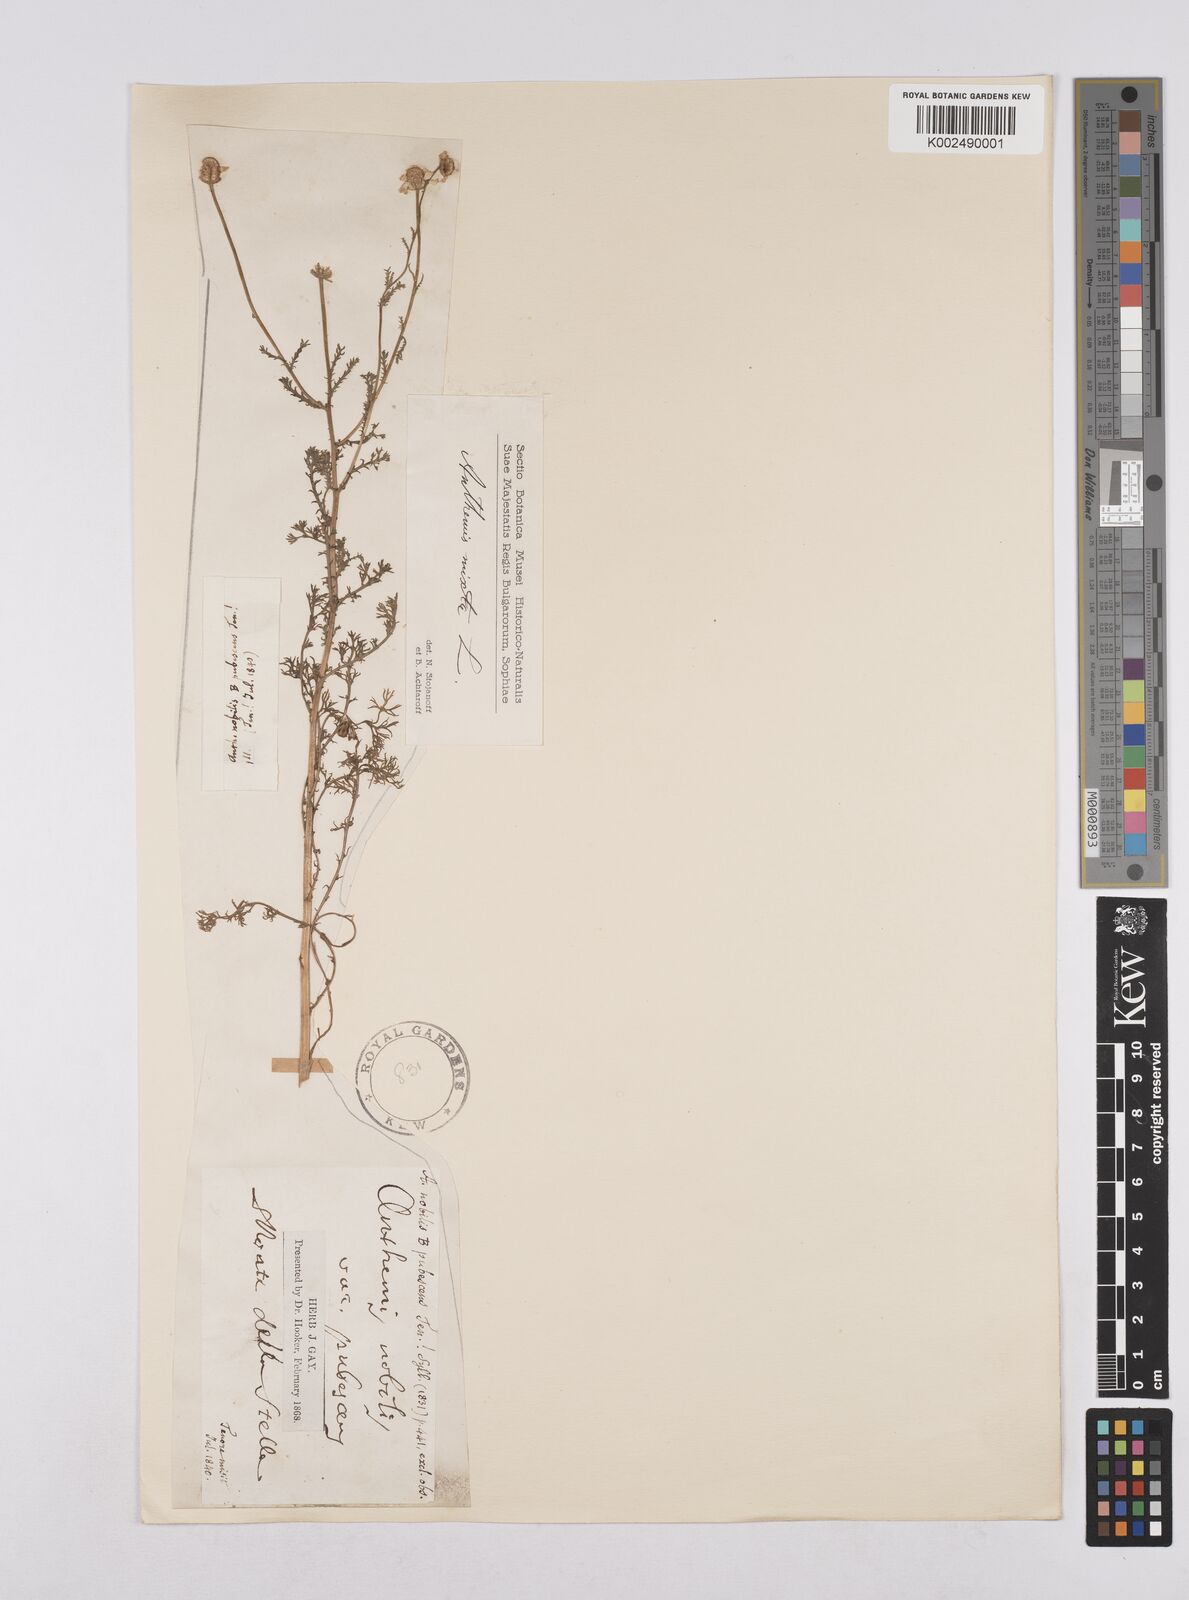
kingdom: Plantae
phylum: Tracheophyta
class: Magnoliopsida
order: Asterales
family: Asteraceae
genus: Chamaemelum
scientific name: Chamaemelum nobile
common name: Roman chamomile
